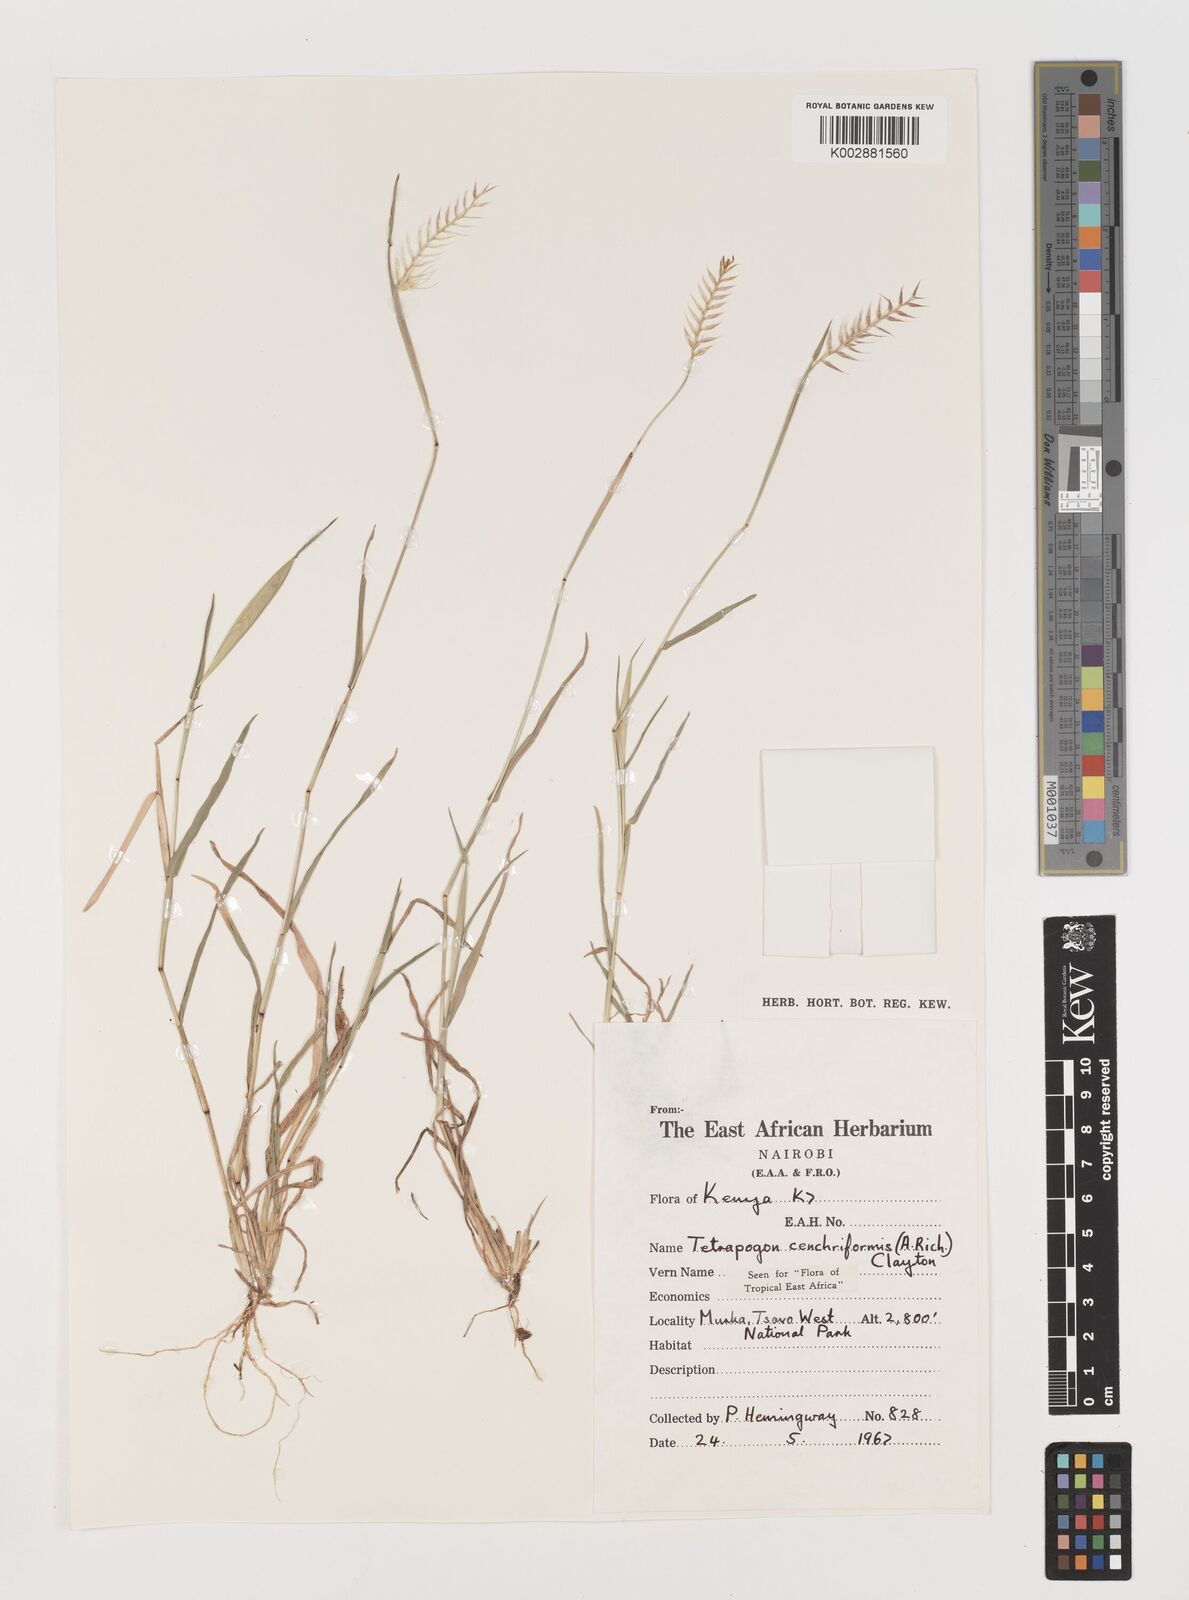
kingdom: Plantae
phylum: Tracheophyta
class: Liliopsida
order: Poales
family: Poaceae
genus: Tetrapogon
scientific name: Tetrapogon cenchriformis
